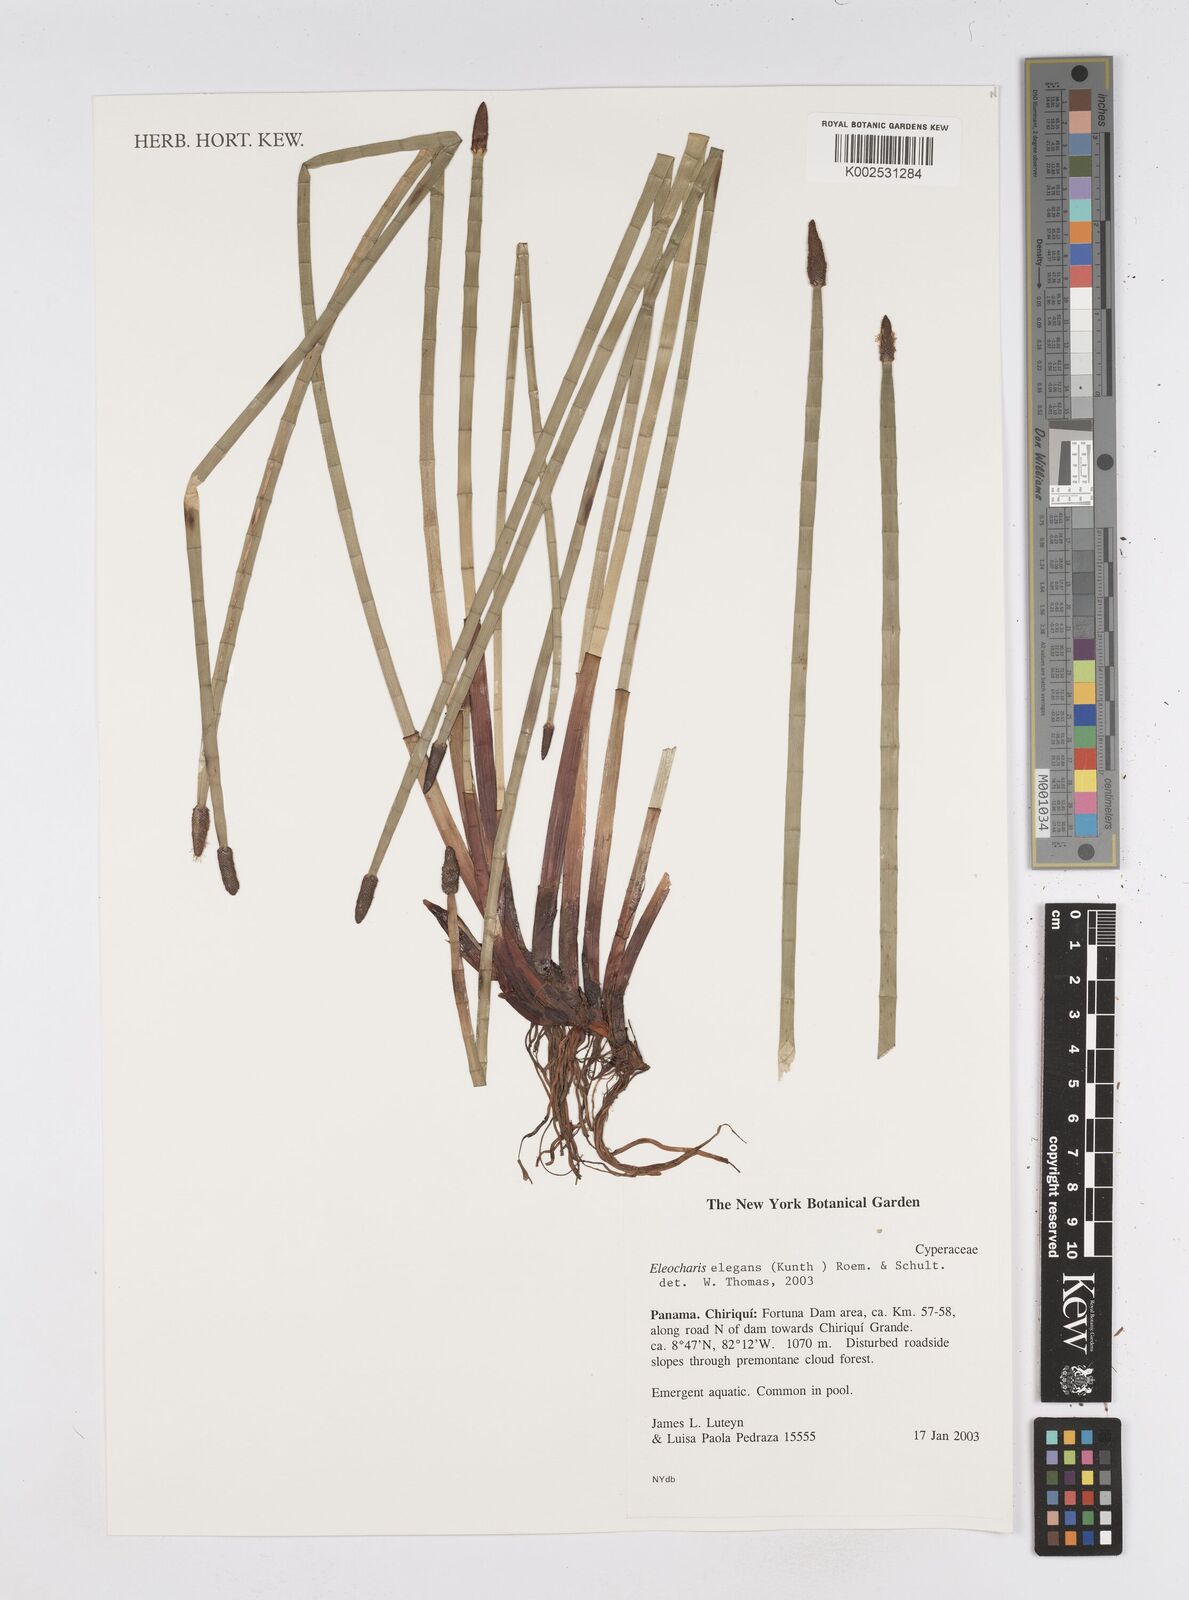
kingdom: Plantae
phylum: Tracheophyta
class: Liliopsida
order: Poales
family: Cyperaceae
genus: Eleocharis
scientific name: Eleocharis elegans
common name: Elegant spike-rush
